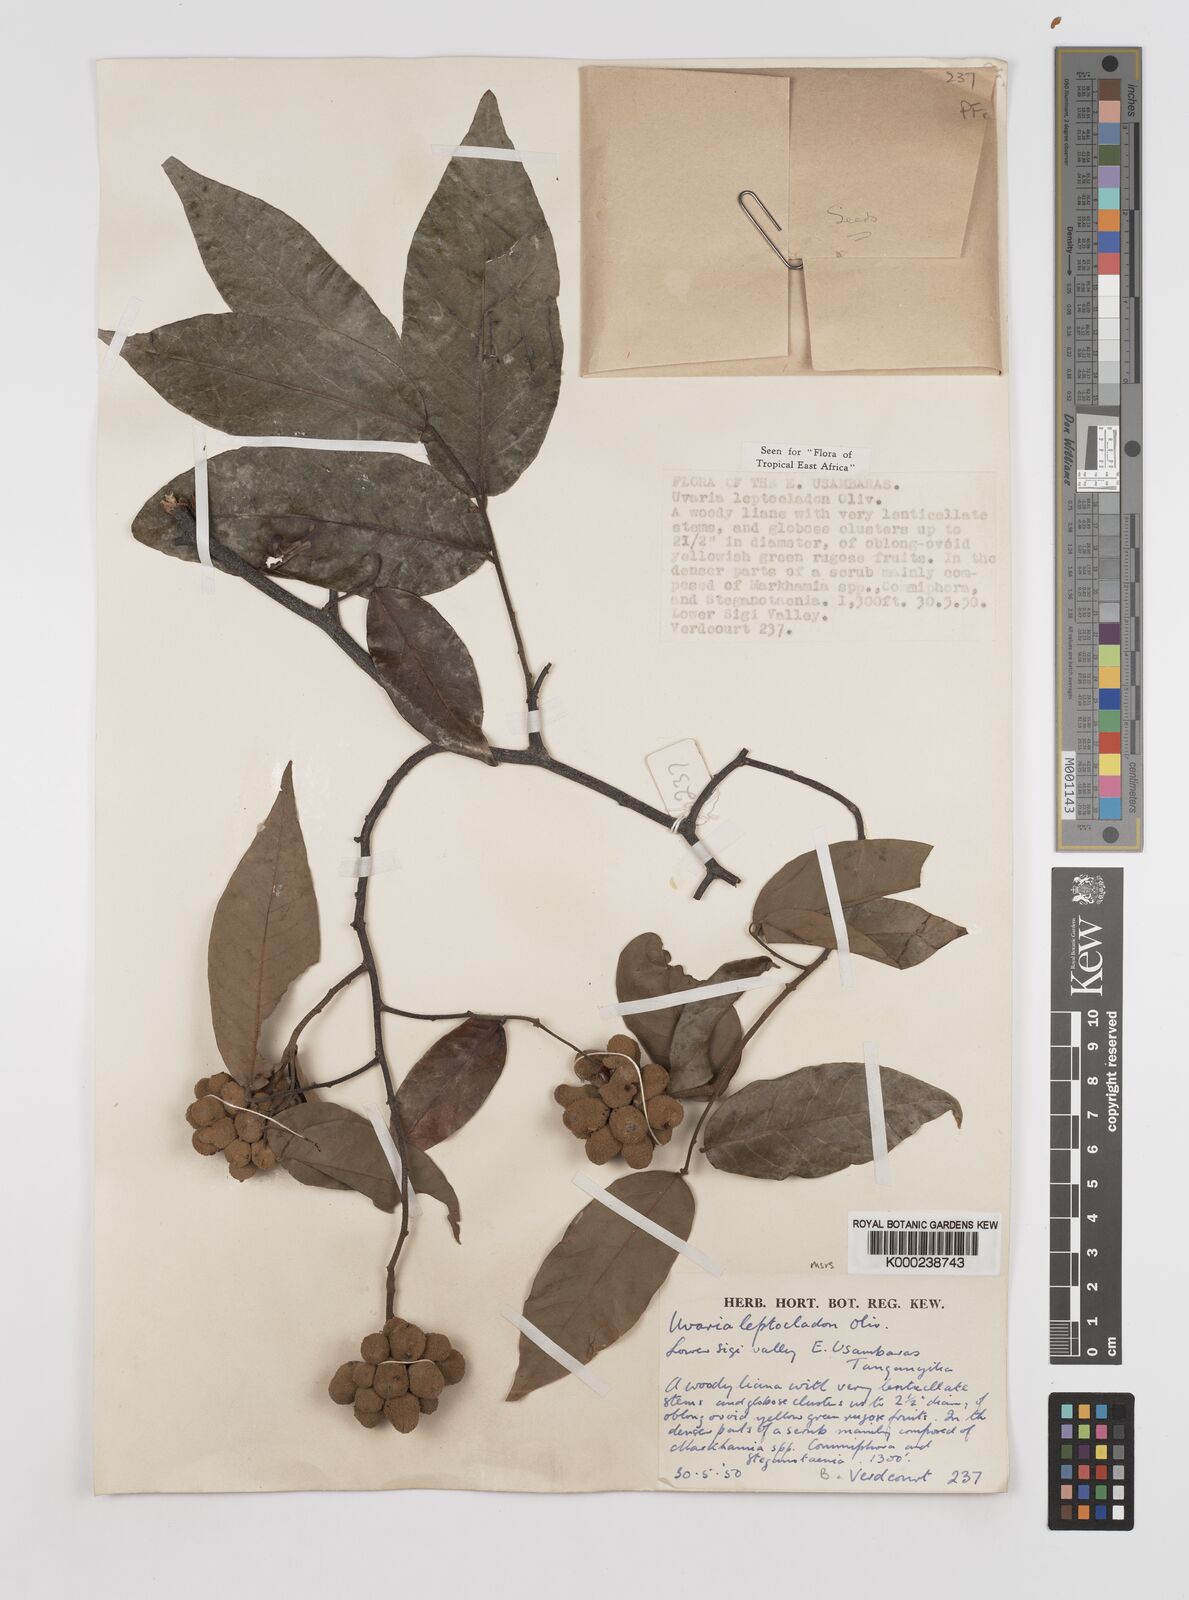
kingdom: Plantae
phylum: Tracheophyta
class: Magnoliopsida
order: Magnoliales
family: Annonaceae
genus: Uvaria
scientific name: Uvaria leptocladon
